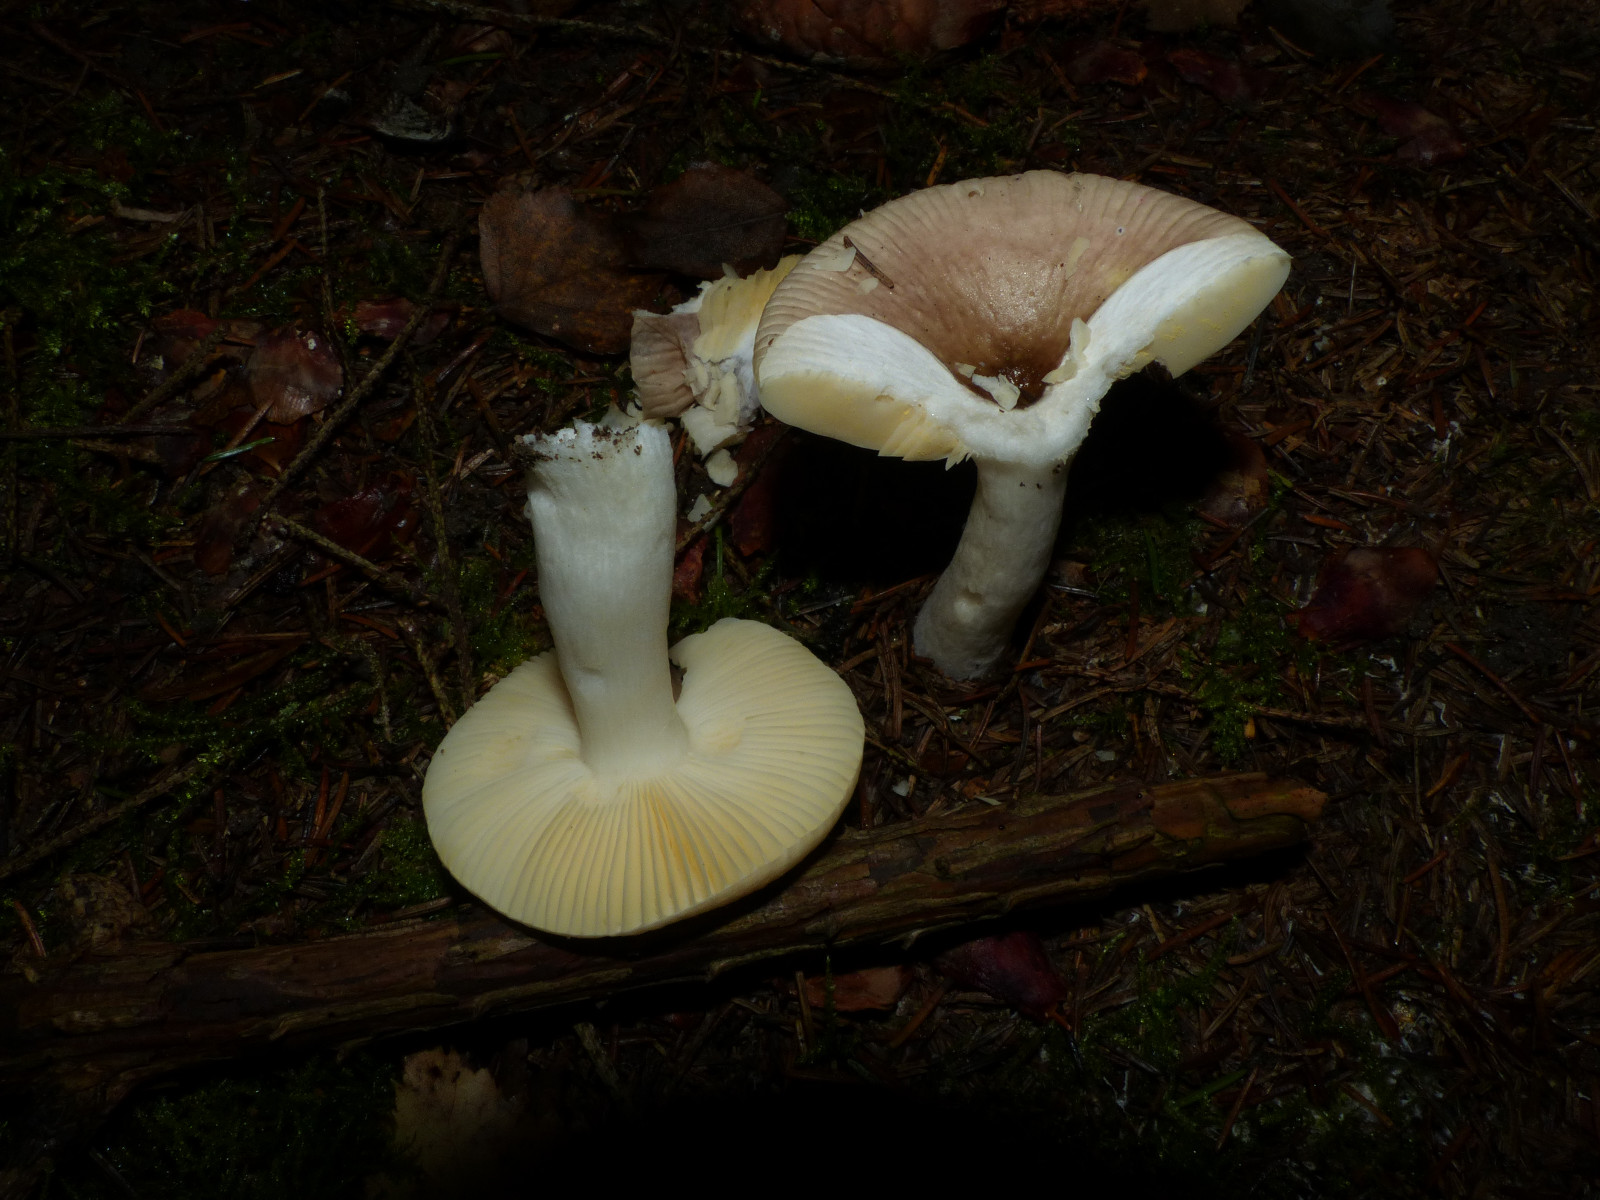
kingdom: Fungi
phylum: Basidiomycota
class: Agaricomycetes
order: Russulales
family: Russulaceae
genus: Russula
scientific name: Russula nauseosa
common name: spinkel skørhat
